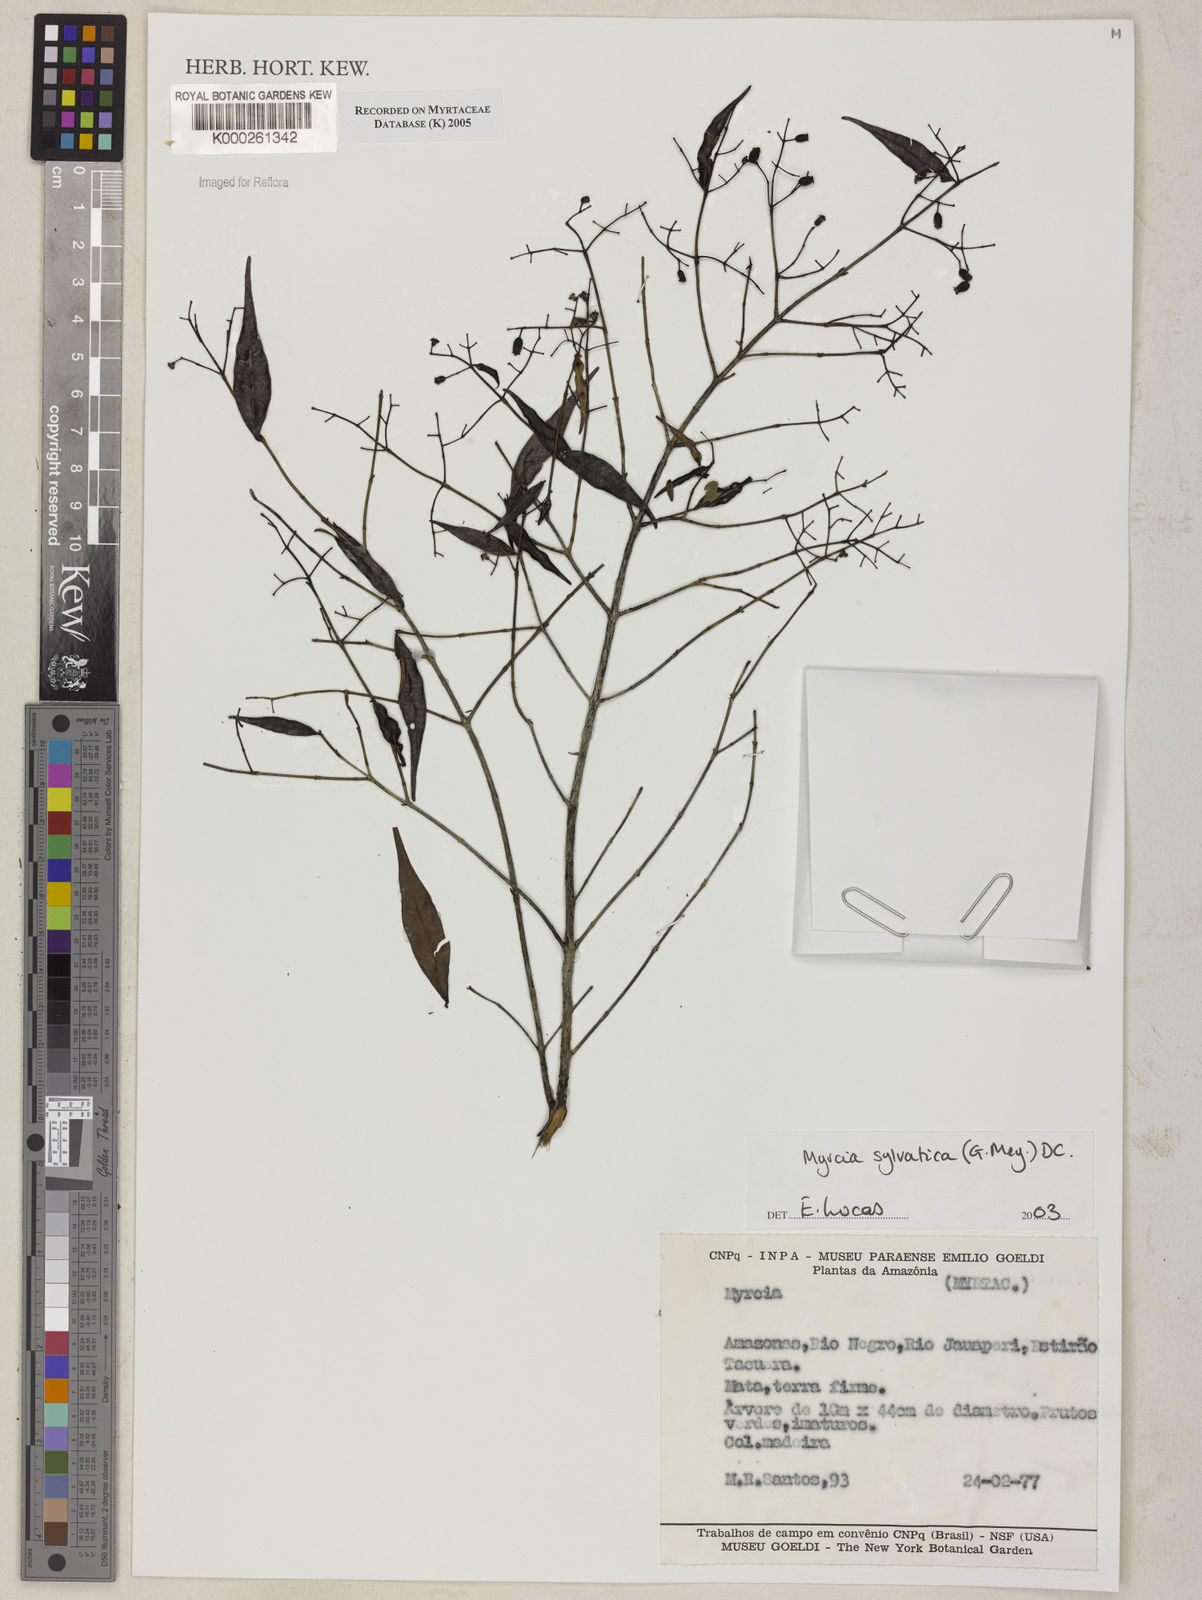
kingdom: Plantae
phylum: Tracheophyta
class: Magnoliopsida
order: Myrtales
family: Myrtaceae
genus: Myrcia
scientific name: Myrcia sylvatica
